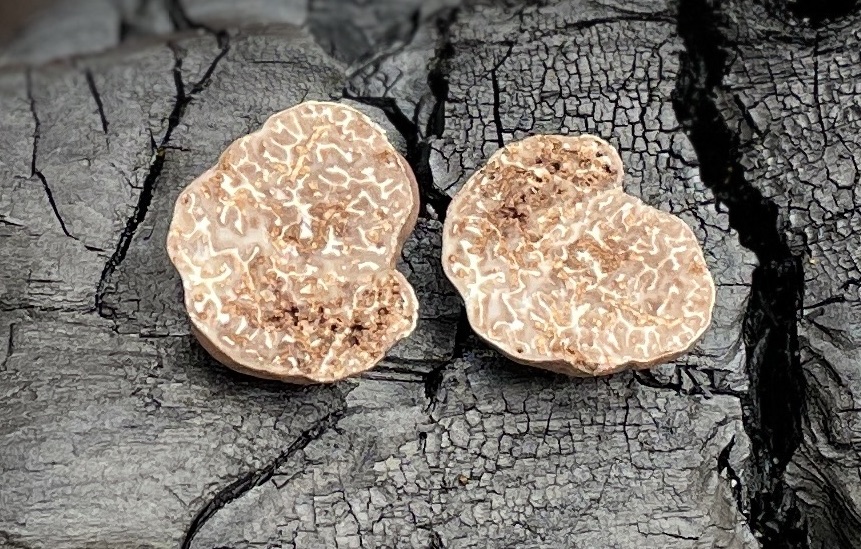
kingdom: Fungi
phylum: Ascomycota
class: Pezizomycetes
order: Pezizales
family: Tuberaceae
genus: Tuber
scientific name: Tuber rufum
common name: rødbrun trøffel
